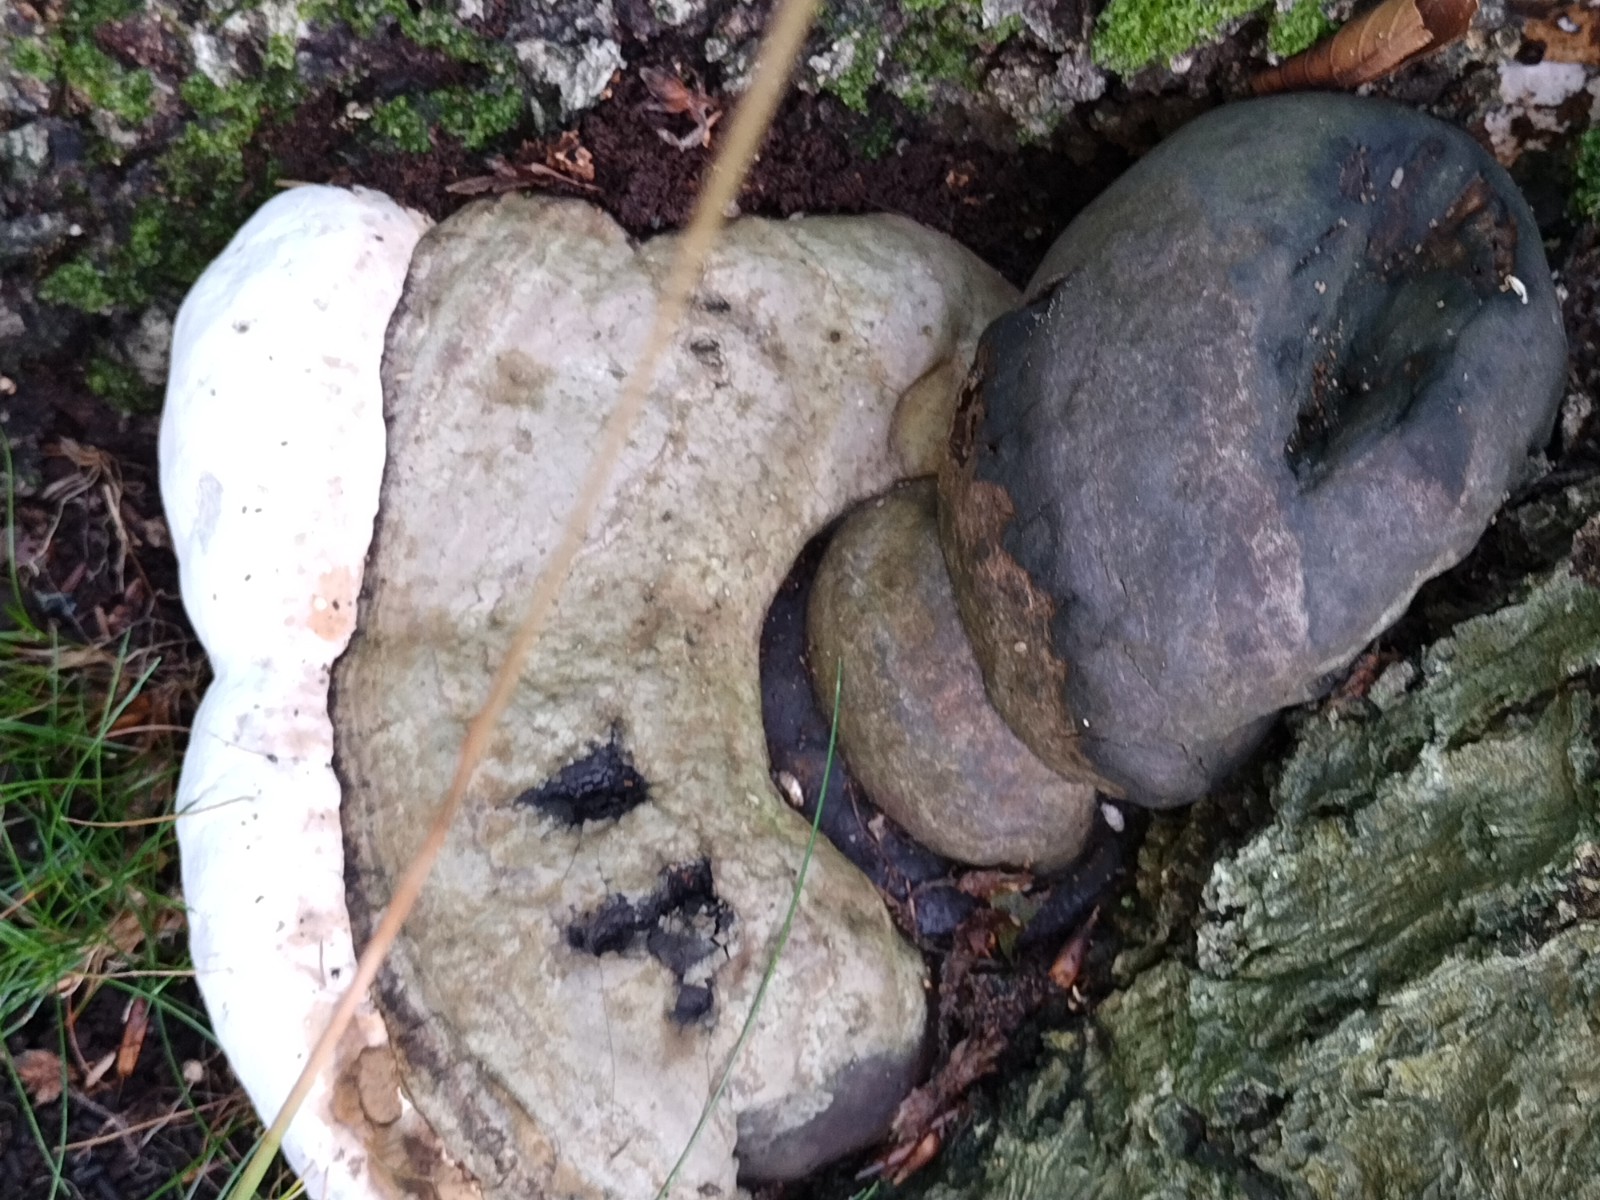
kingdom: Fungi
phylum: Basidiomycota
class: Agaricomycetes
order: Polyporales
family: Polyporaceae
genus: Fomes
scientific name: Fomes fomentarius
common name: tøndersvamp
